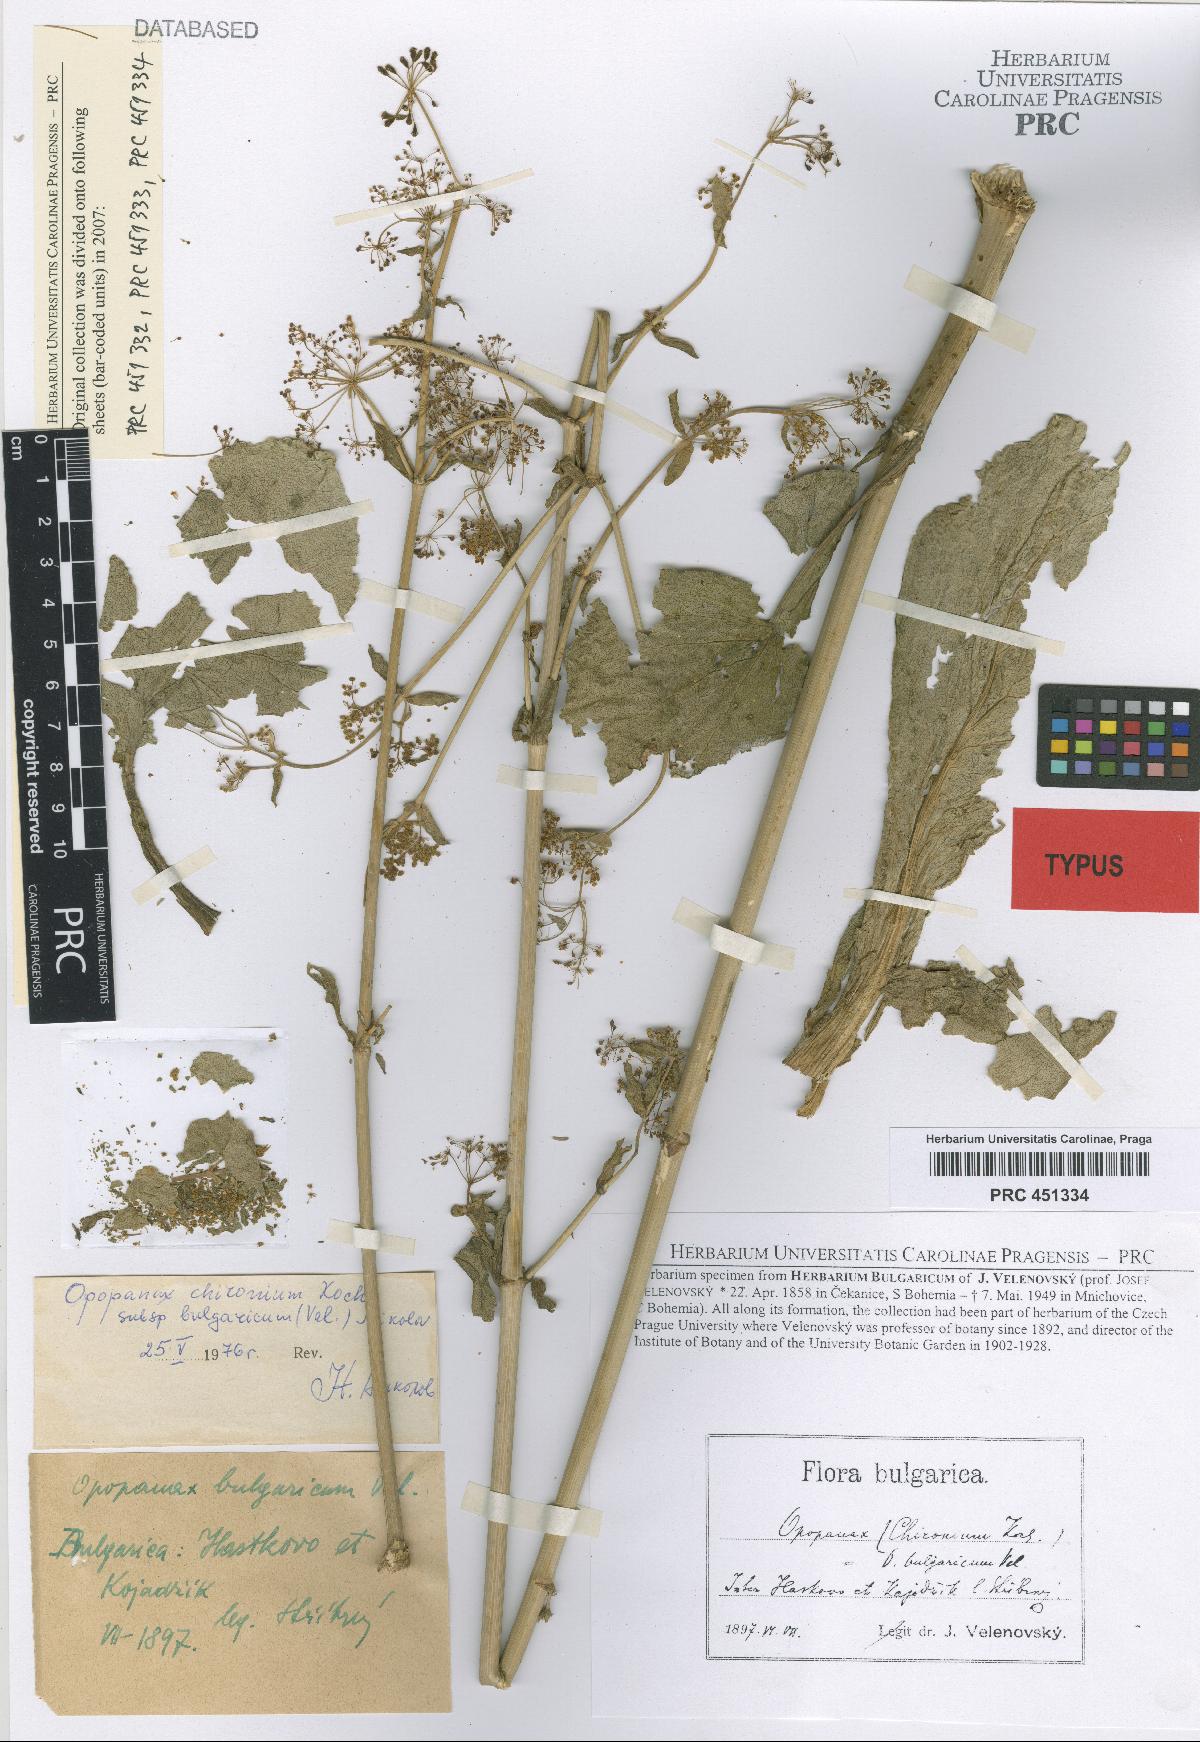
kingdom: Plantae
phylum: Tracheophyta
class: Magnoliopsida
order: Apiales
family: Apiaceae
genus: Opopanax
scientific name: Opopanax chironium
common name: Hercules-all-heal
